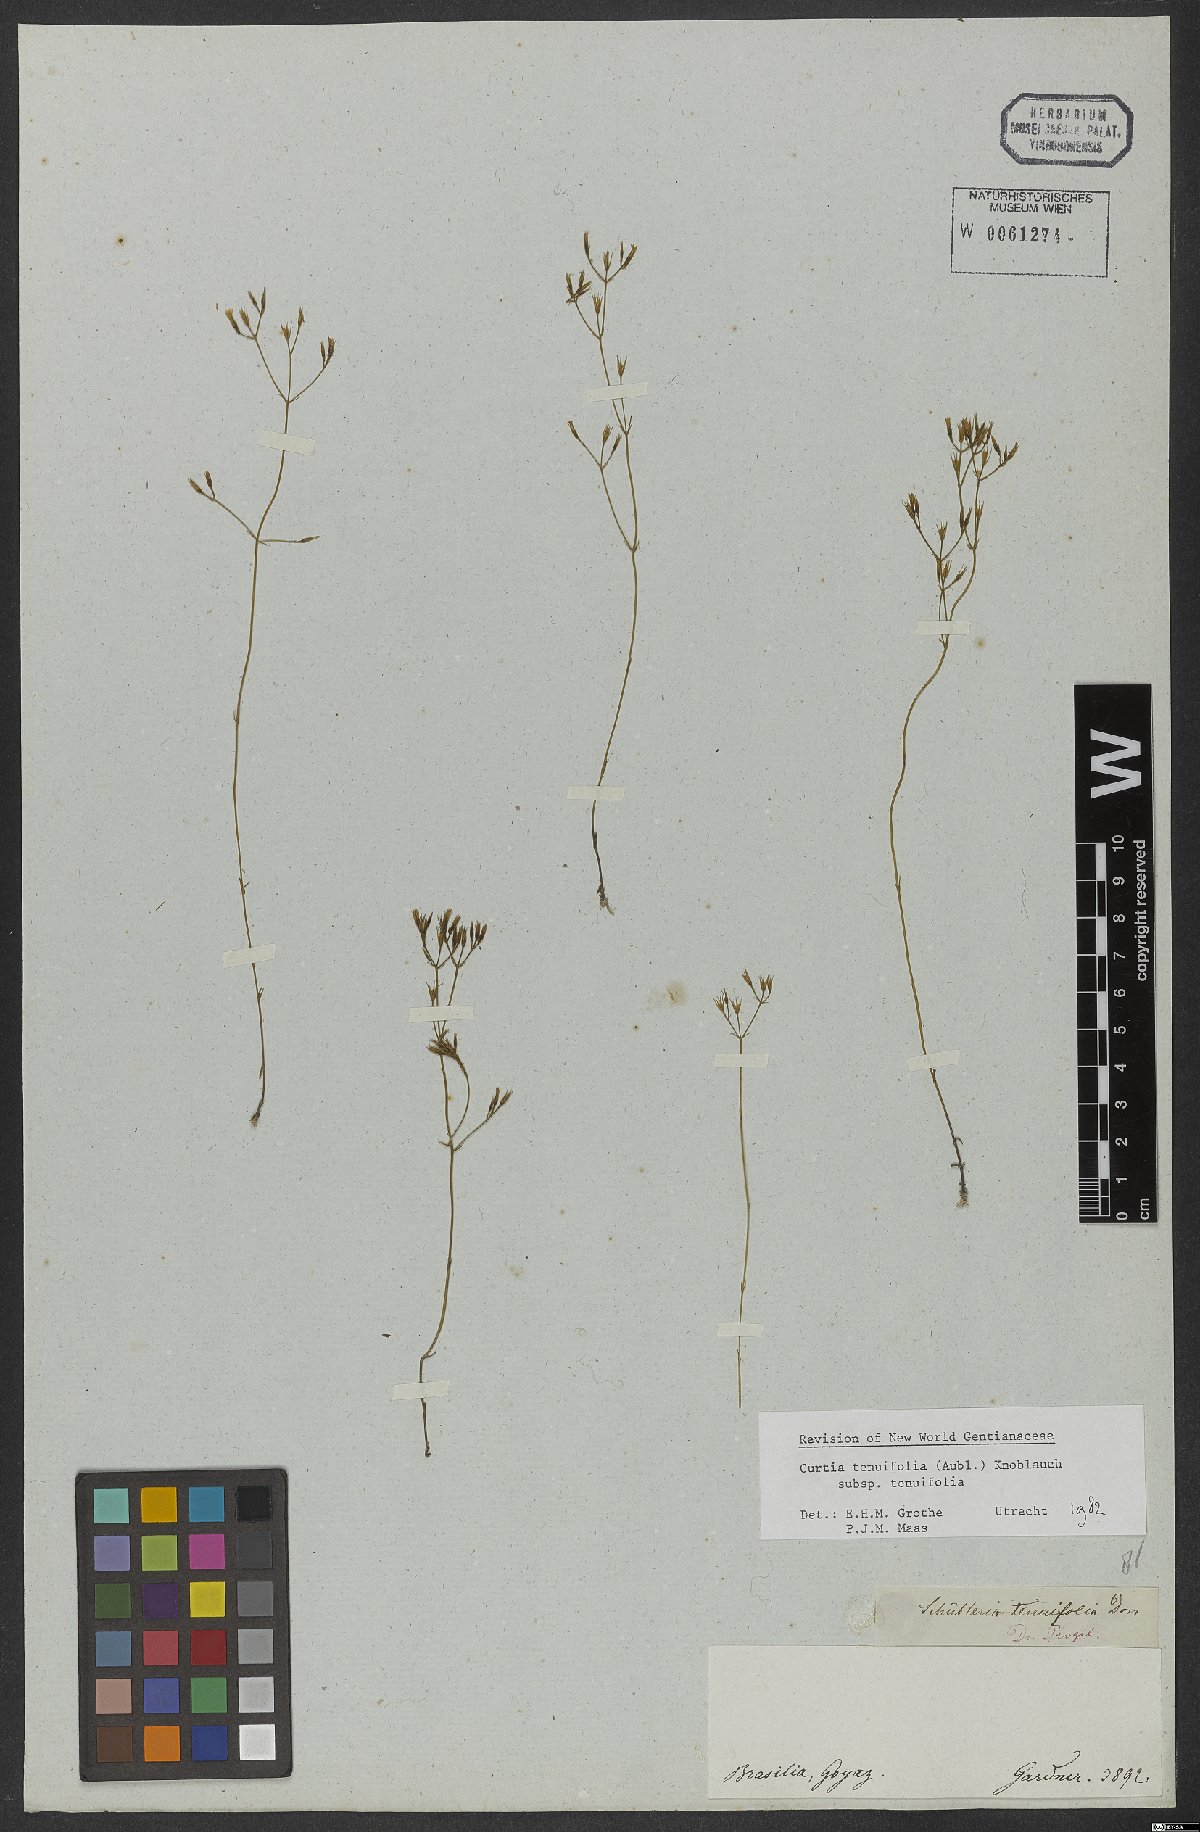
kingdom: Plantae
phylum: Tracheophyta
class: Magnoliopsida
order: Gentianales
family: Gentianaceae
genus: Curtia
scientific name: Curtia tenuifolia
